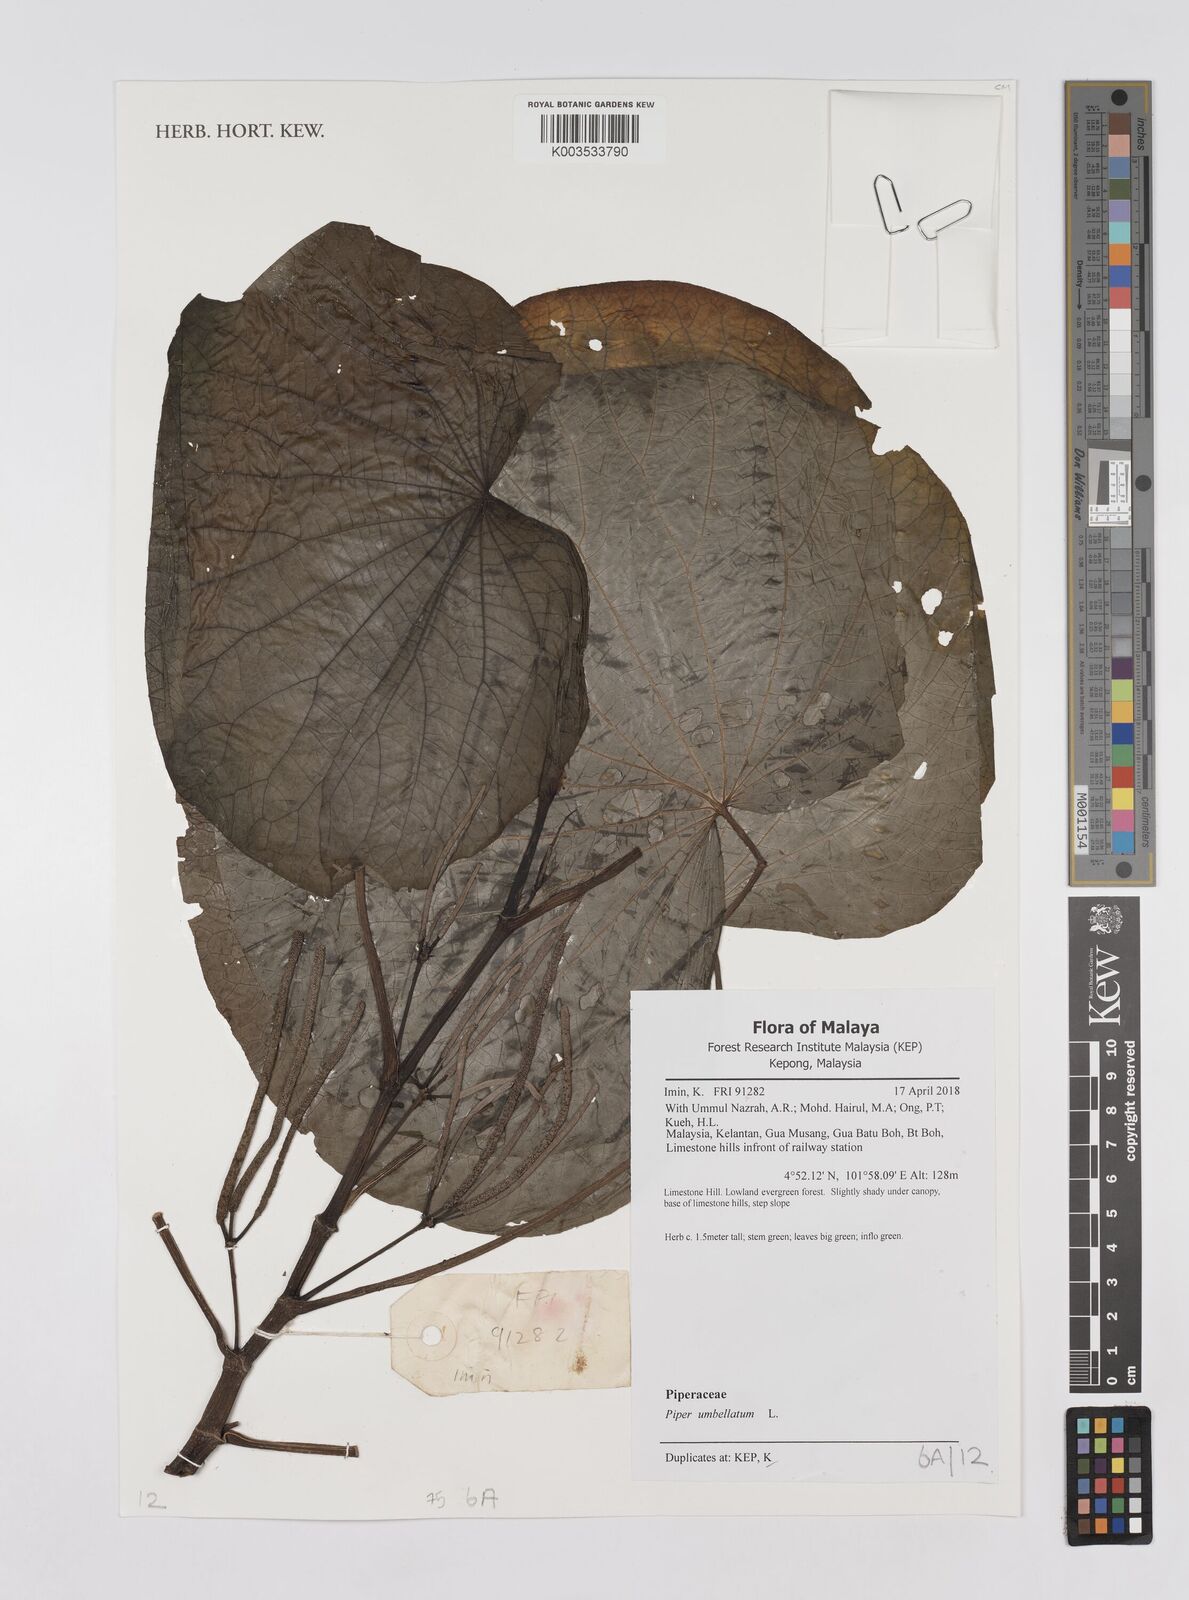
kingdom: Plantae
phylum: Tracheophyta
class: Magnoliopsida
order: Piperales
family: Piperaceae
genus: Piper
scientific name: Piper umbellatum
